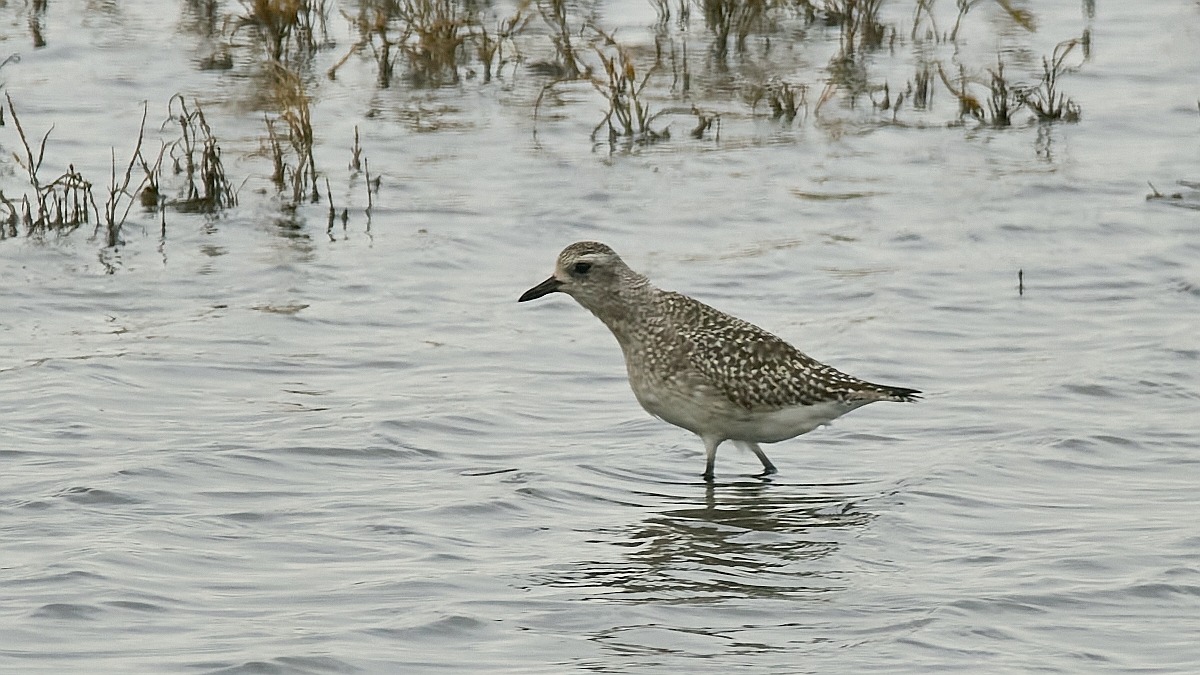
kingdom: Animalia
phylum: Chordata
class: Aves
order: Charadriiformes
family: Charadriidae
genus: Pluvialis
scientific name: Pluvialis squatarola
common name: Strandhjejle
